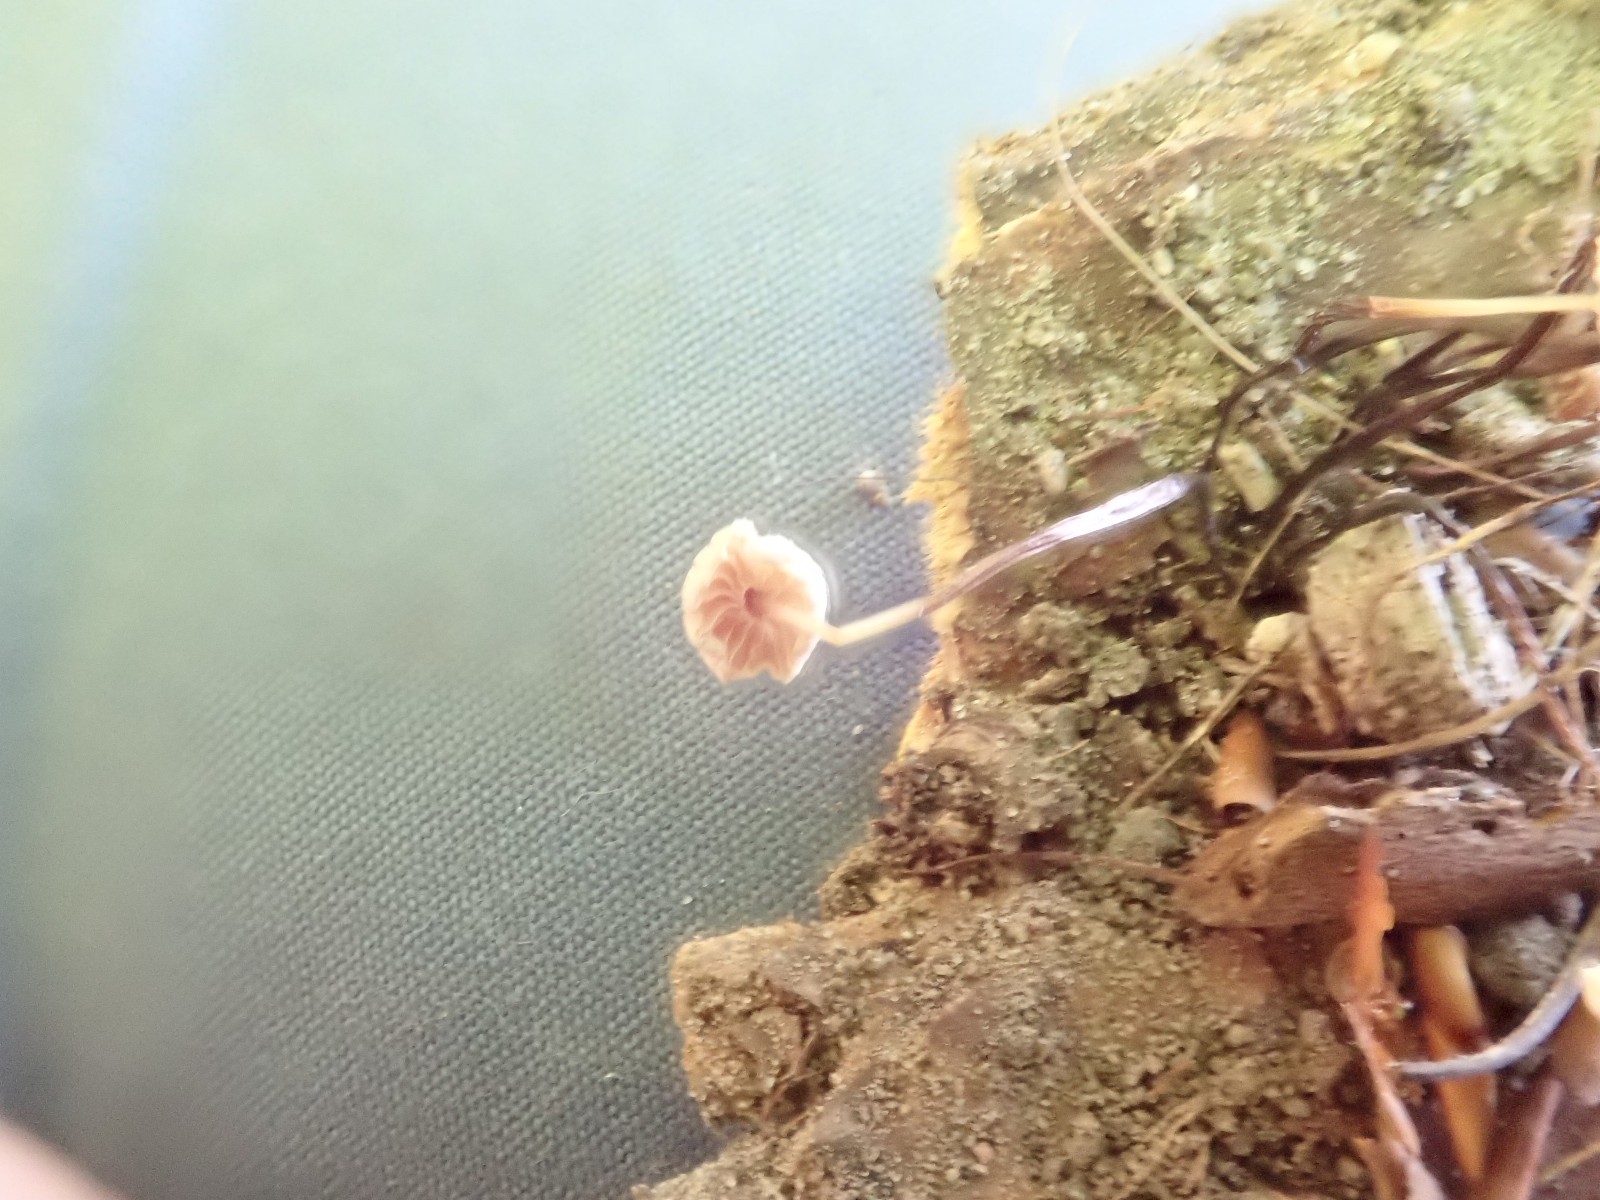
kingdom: Fungi
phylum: Basidiomycota
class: Agaricomycetes
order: Agaricales
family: Marasmiaceae
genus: Marasmius
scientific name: Marasmius rotula
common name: hjul-bruskhat
